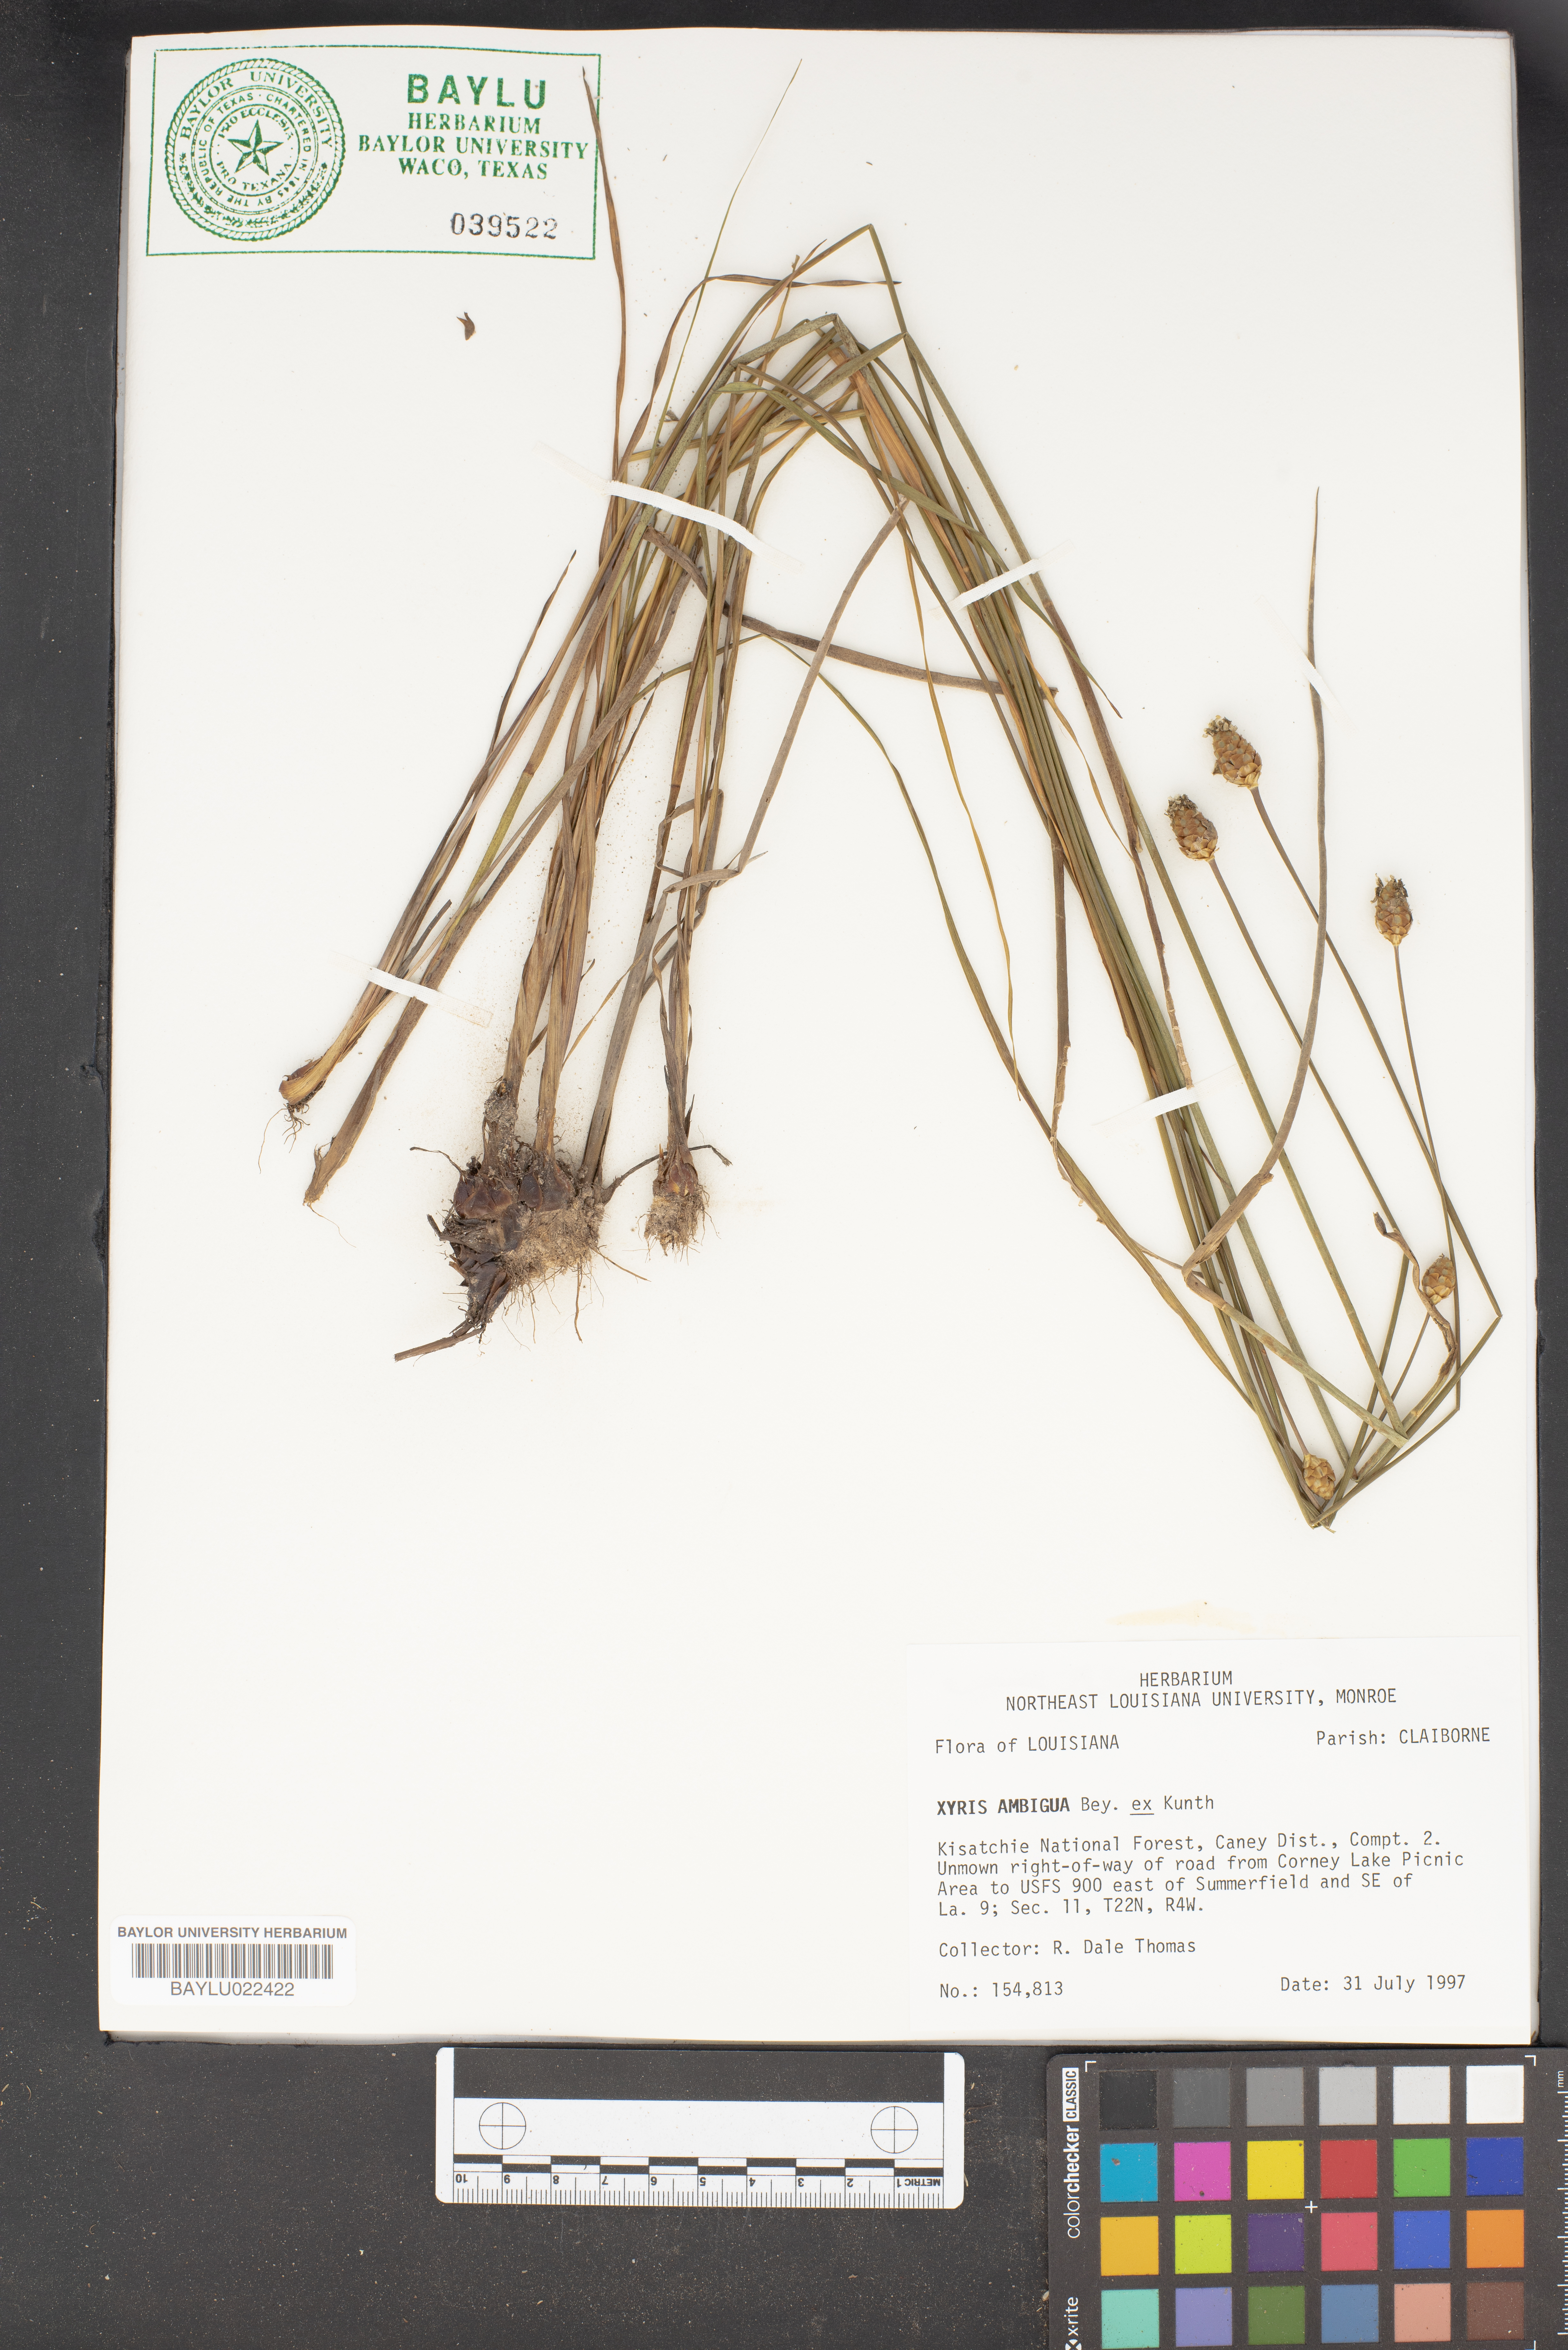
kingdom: Plantae
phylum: Tracheophyta
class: Liliopsida
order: Poales
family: Xyridaceae
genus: Xyris
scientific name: Xyris ambigua
